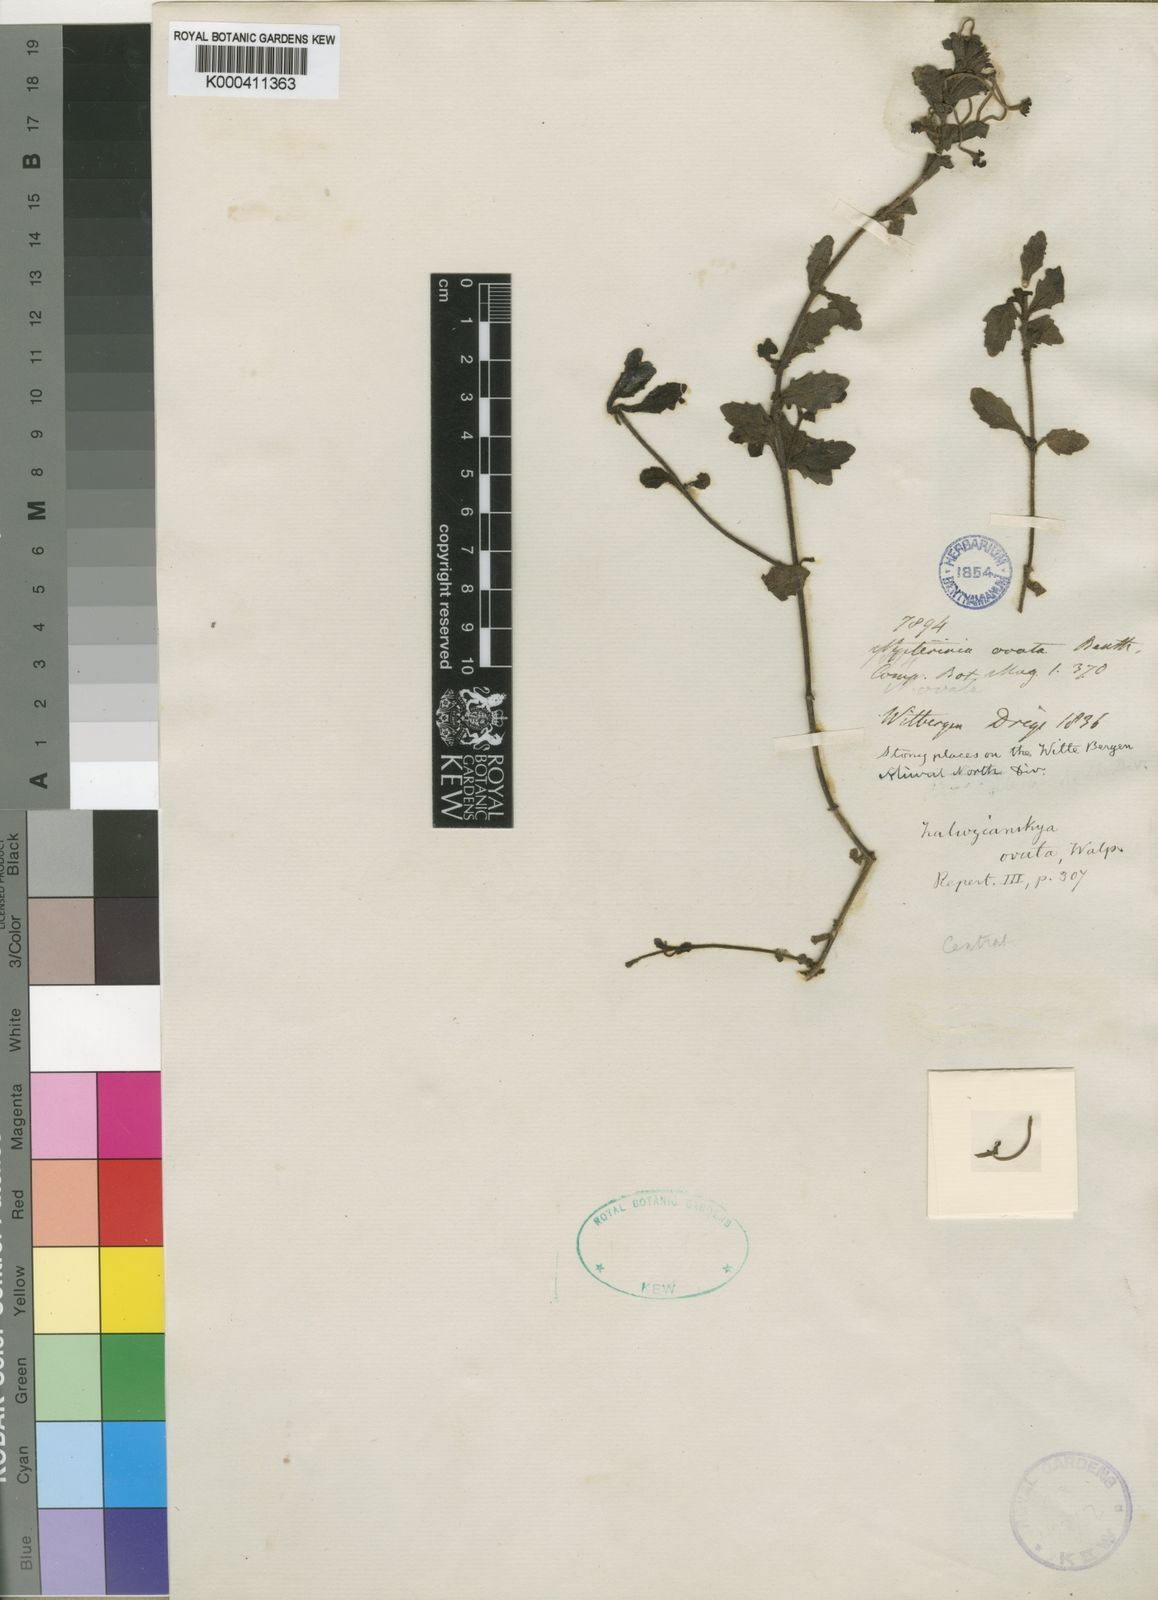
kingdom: Plantae
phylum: Tracheophyta
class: Magnoliopsida
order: Lamiales
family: Scrophulariaceae
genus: Zaluzianskya
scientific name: Zaluzianskya ovata
